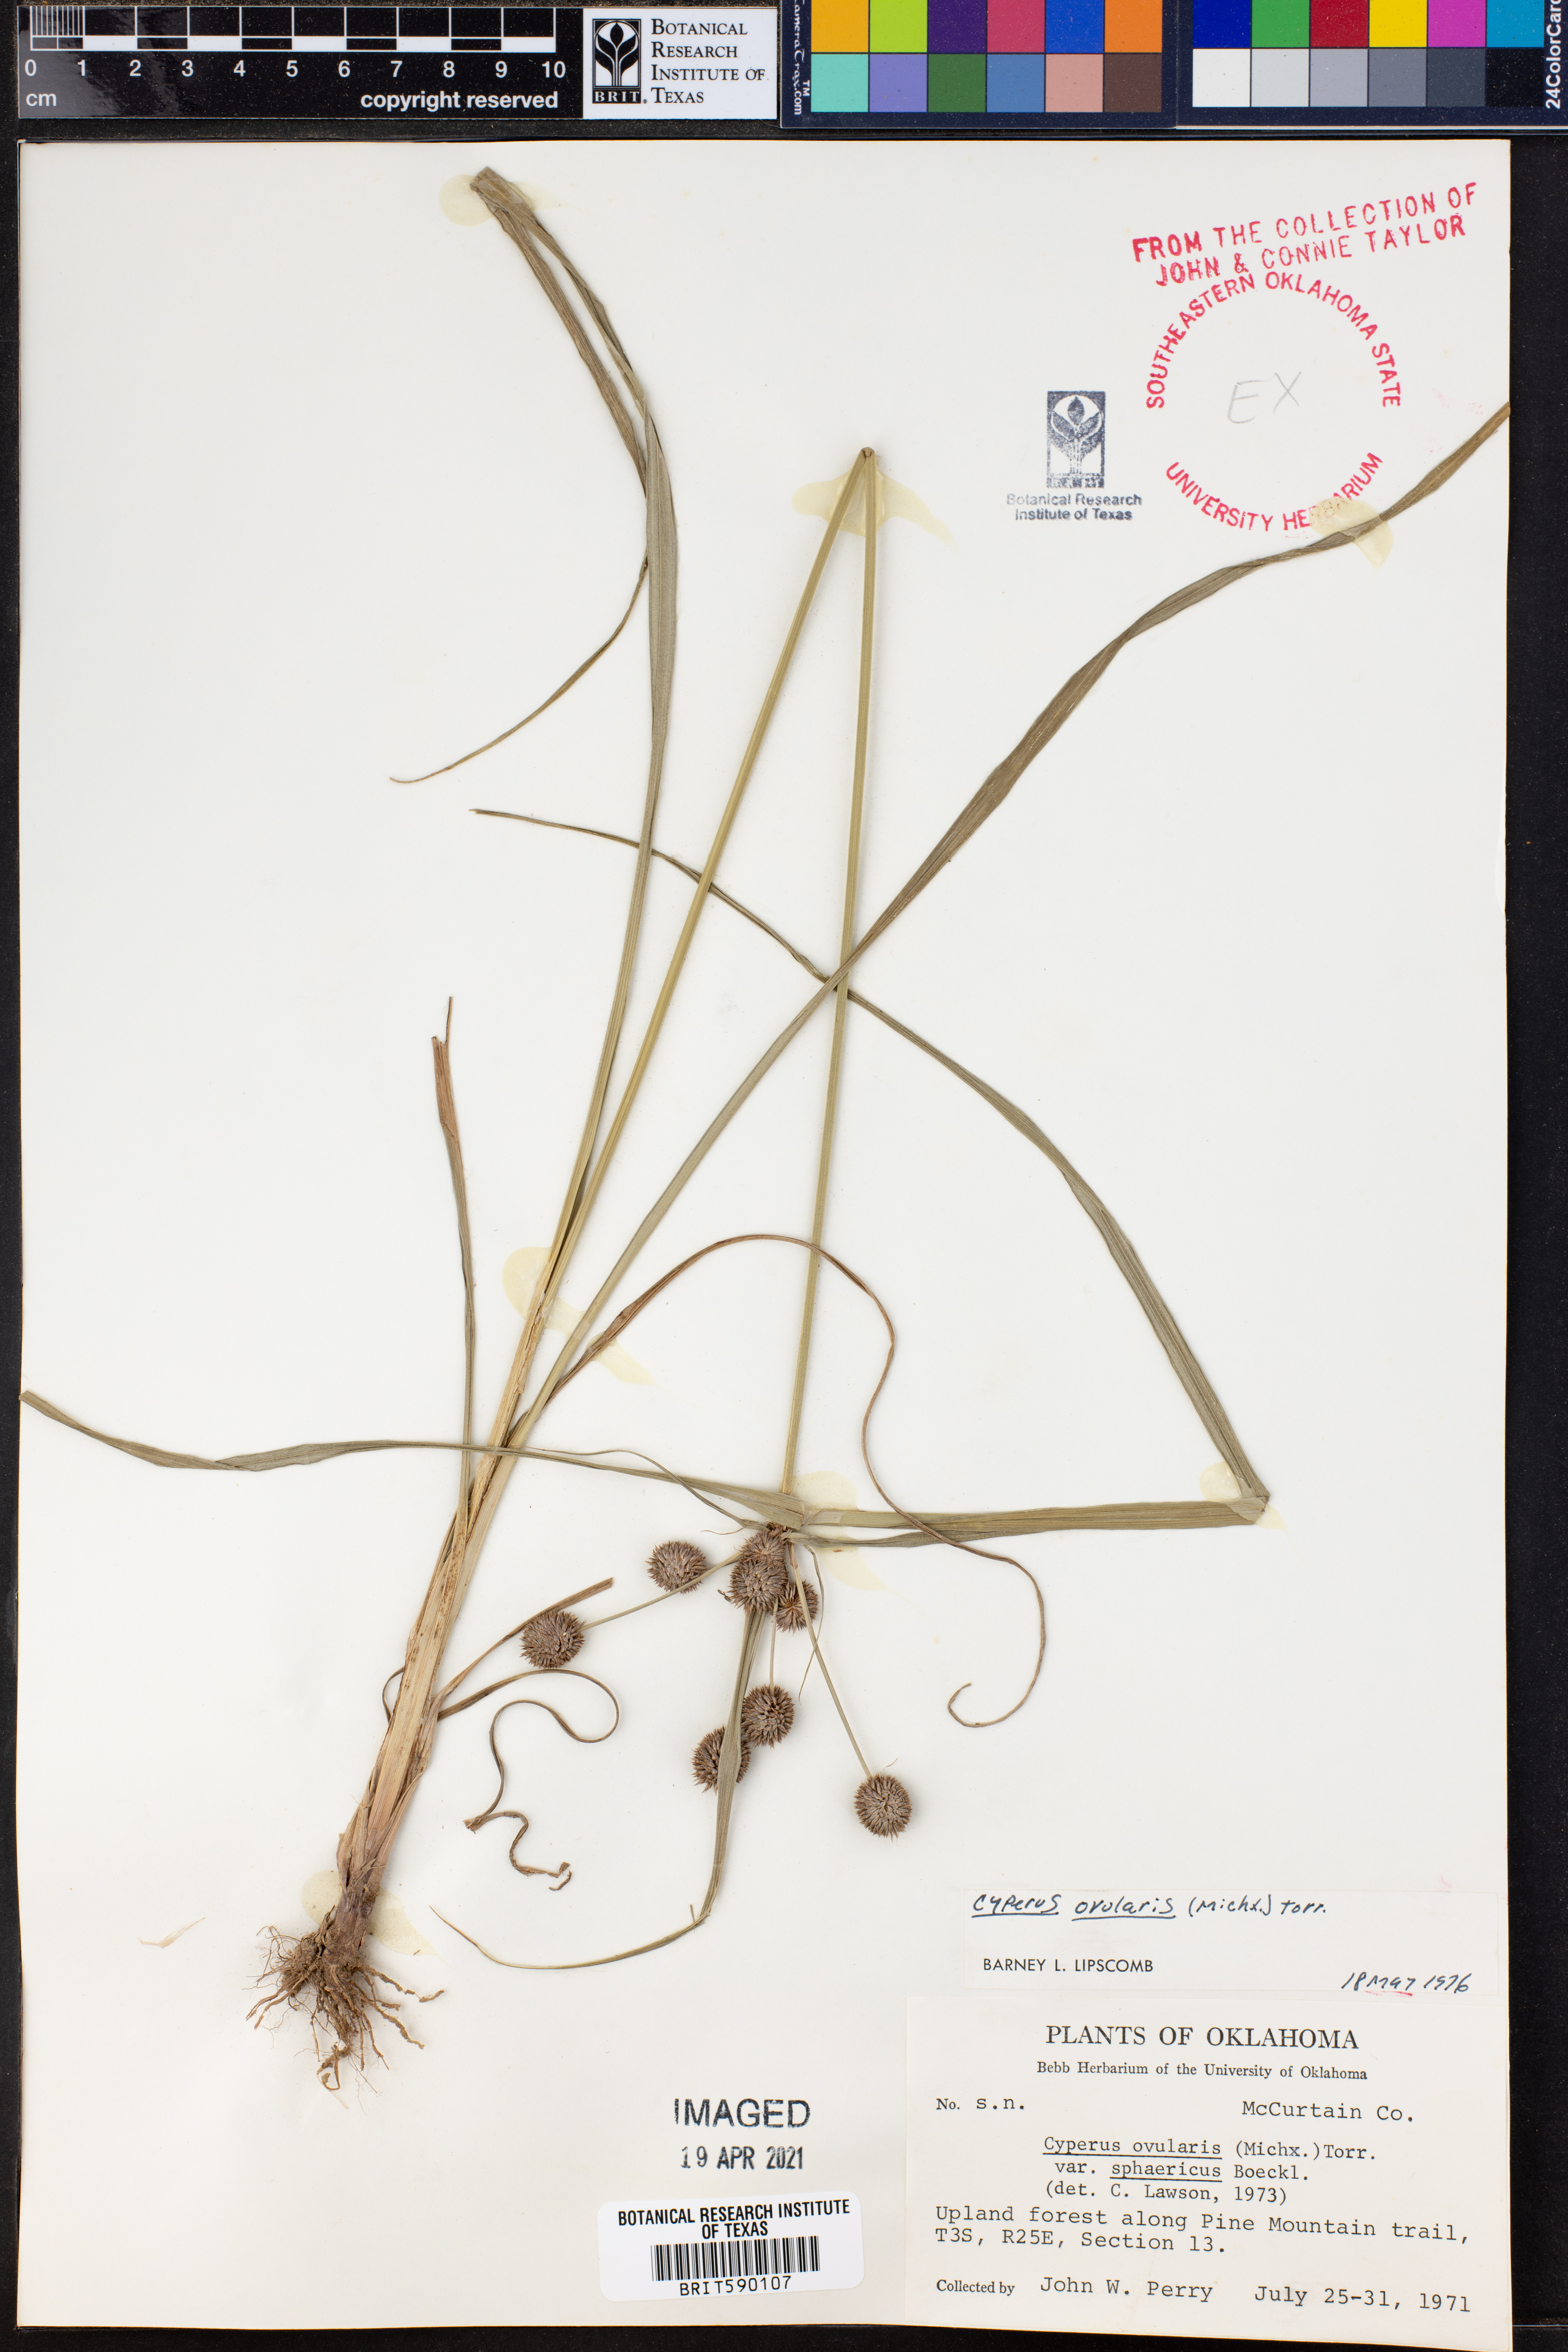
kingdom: Plantae
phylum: Tracheophyta
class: Liliopsida
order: Poales
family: Cyperaceae
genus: Cyperus
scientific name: Cyperus echinatus
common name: Teasel sedge
